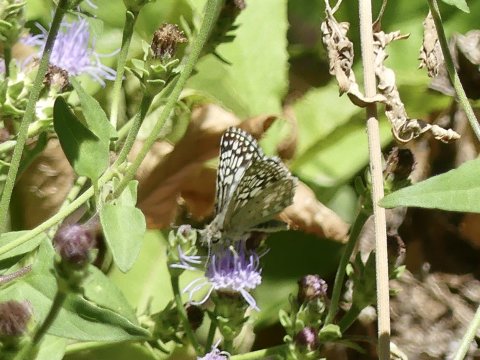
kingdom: Animalia
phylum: Arthropoda
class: Insecta
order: Lepidoptera
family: Hesperiidae
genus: Pyrgus
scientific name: Pyrgus oileus
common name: Desert Checkered-Skipper
